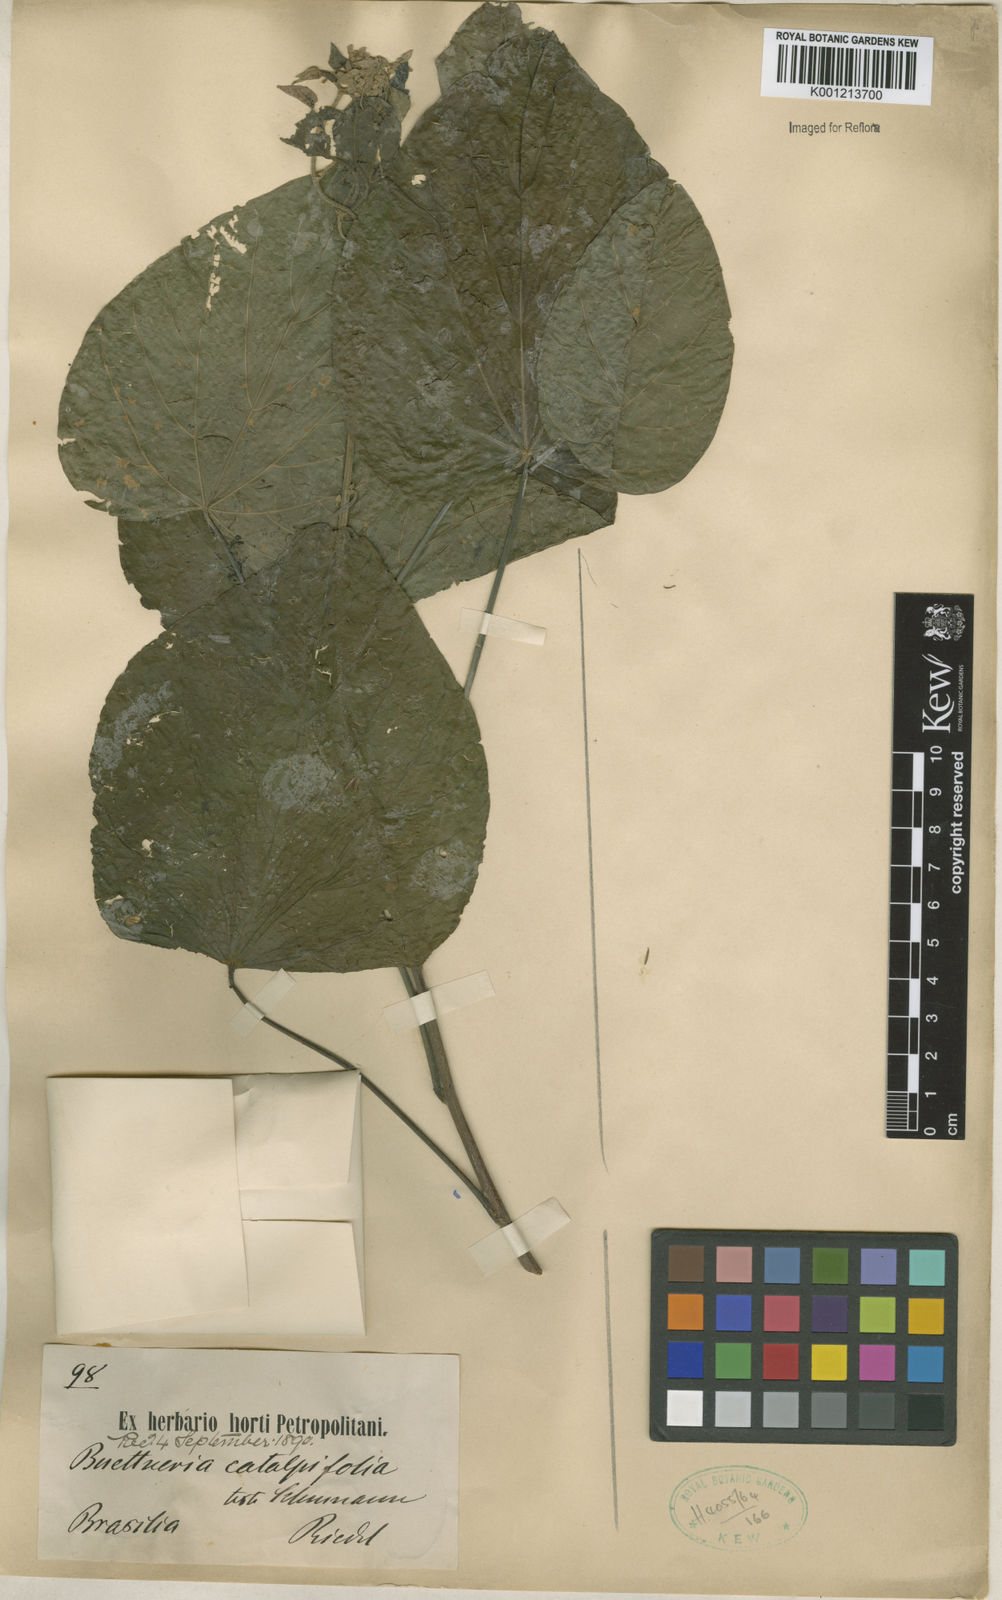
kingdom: Plantae
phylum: Tracheophyta
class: Magnoliopsida
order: Malvales
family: Malvaceae
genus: Byttneria
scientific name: Byttneria catalpifolia
